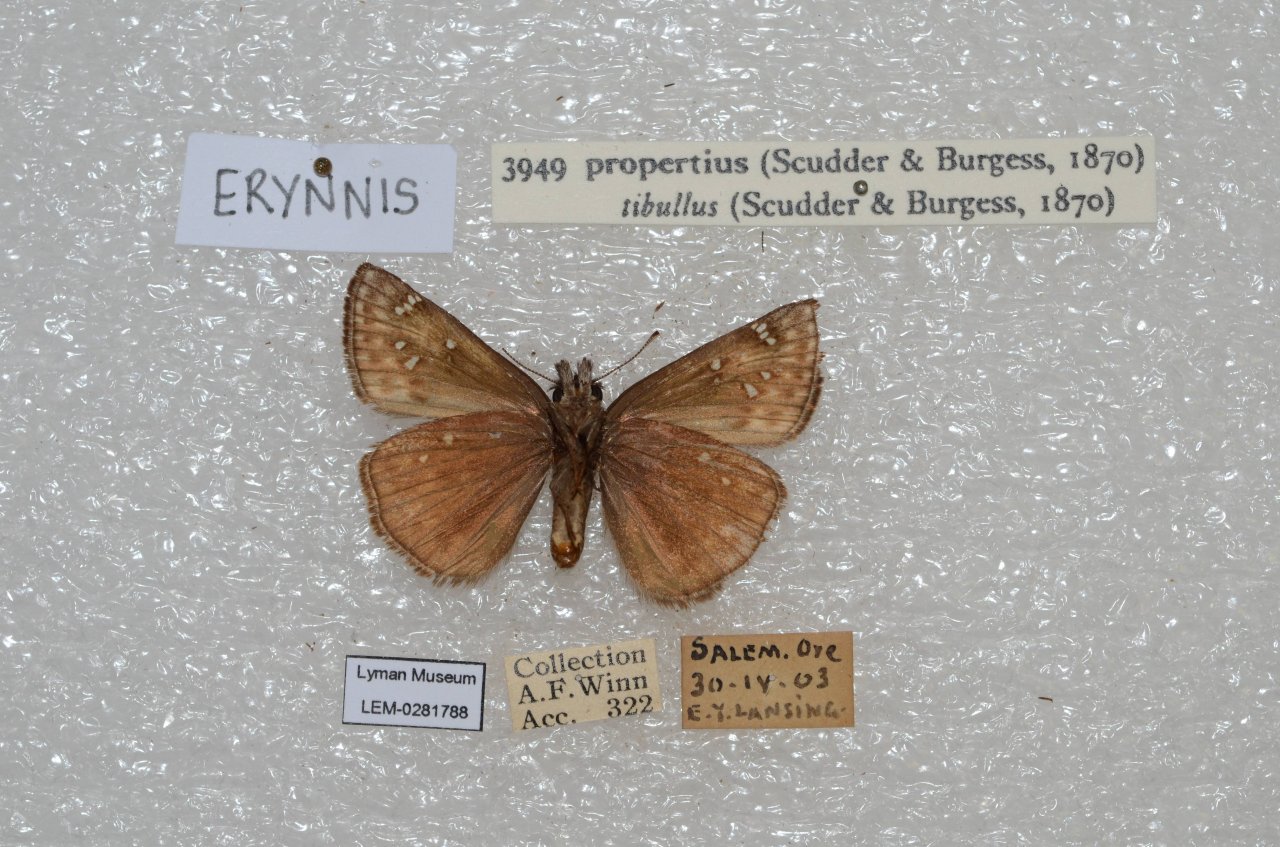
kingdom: Animalia
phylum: Arthropoda
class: Insecta
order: Lepidoptera
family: Hesperiidae
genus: Erynnis
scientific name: Erynnis propertius
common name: Propertius Duskywing
